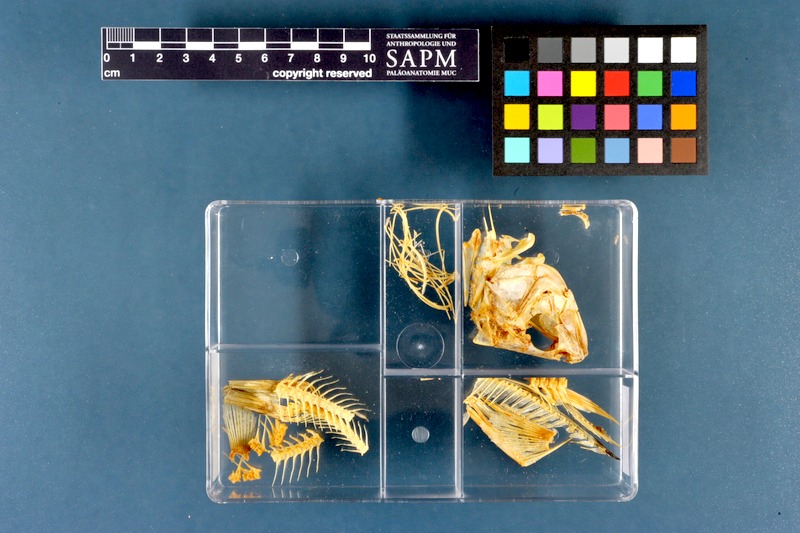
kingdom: Animalia
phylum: Chordata
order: Perciformes
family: Percidae
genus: Perca
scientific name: Perca fluviatilis
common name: Perch
